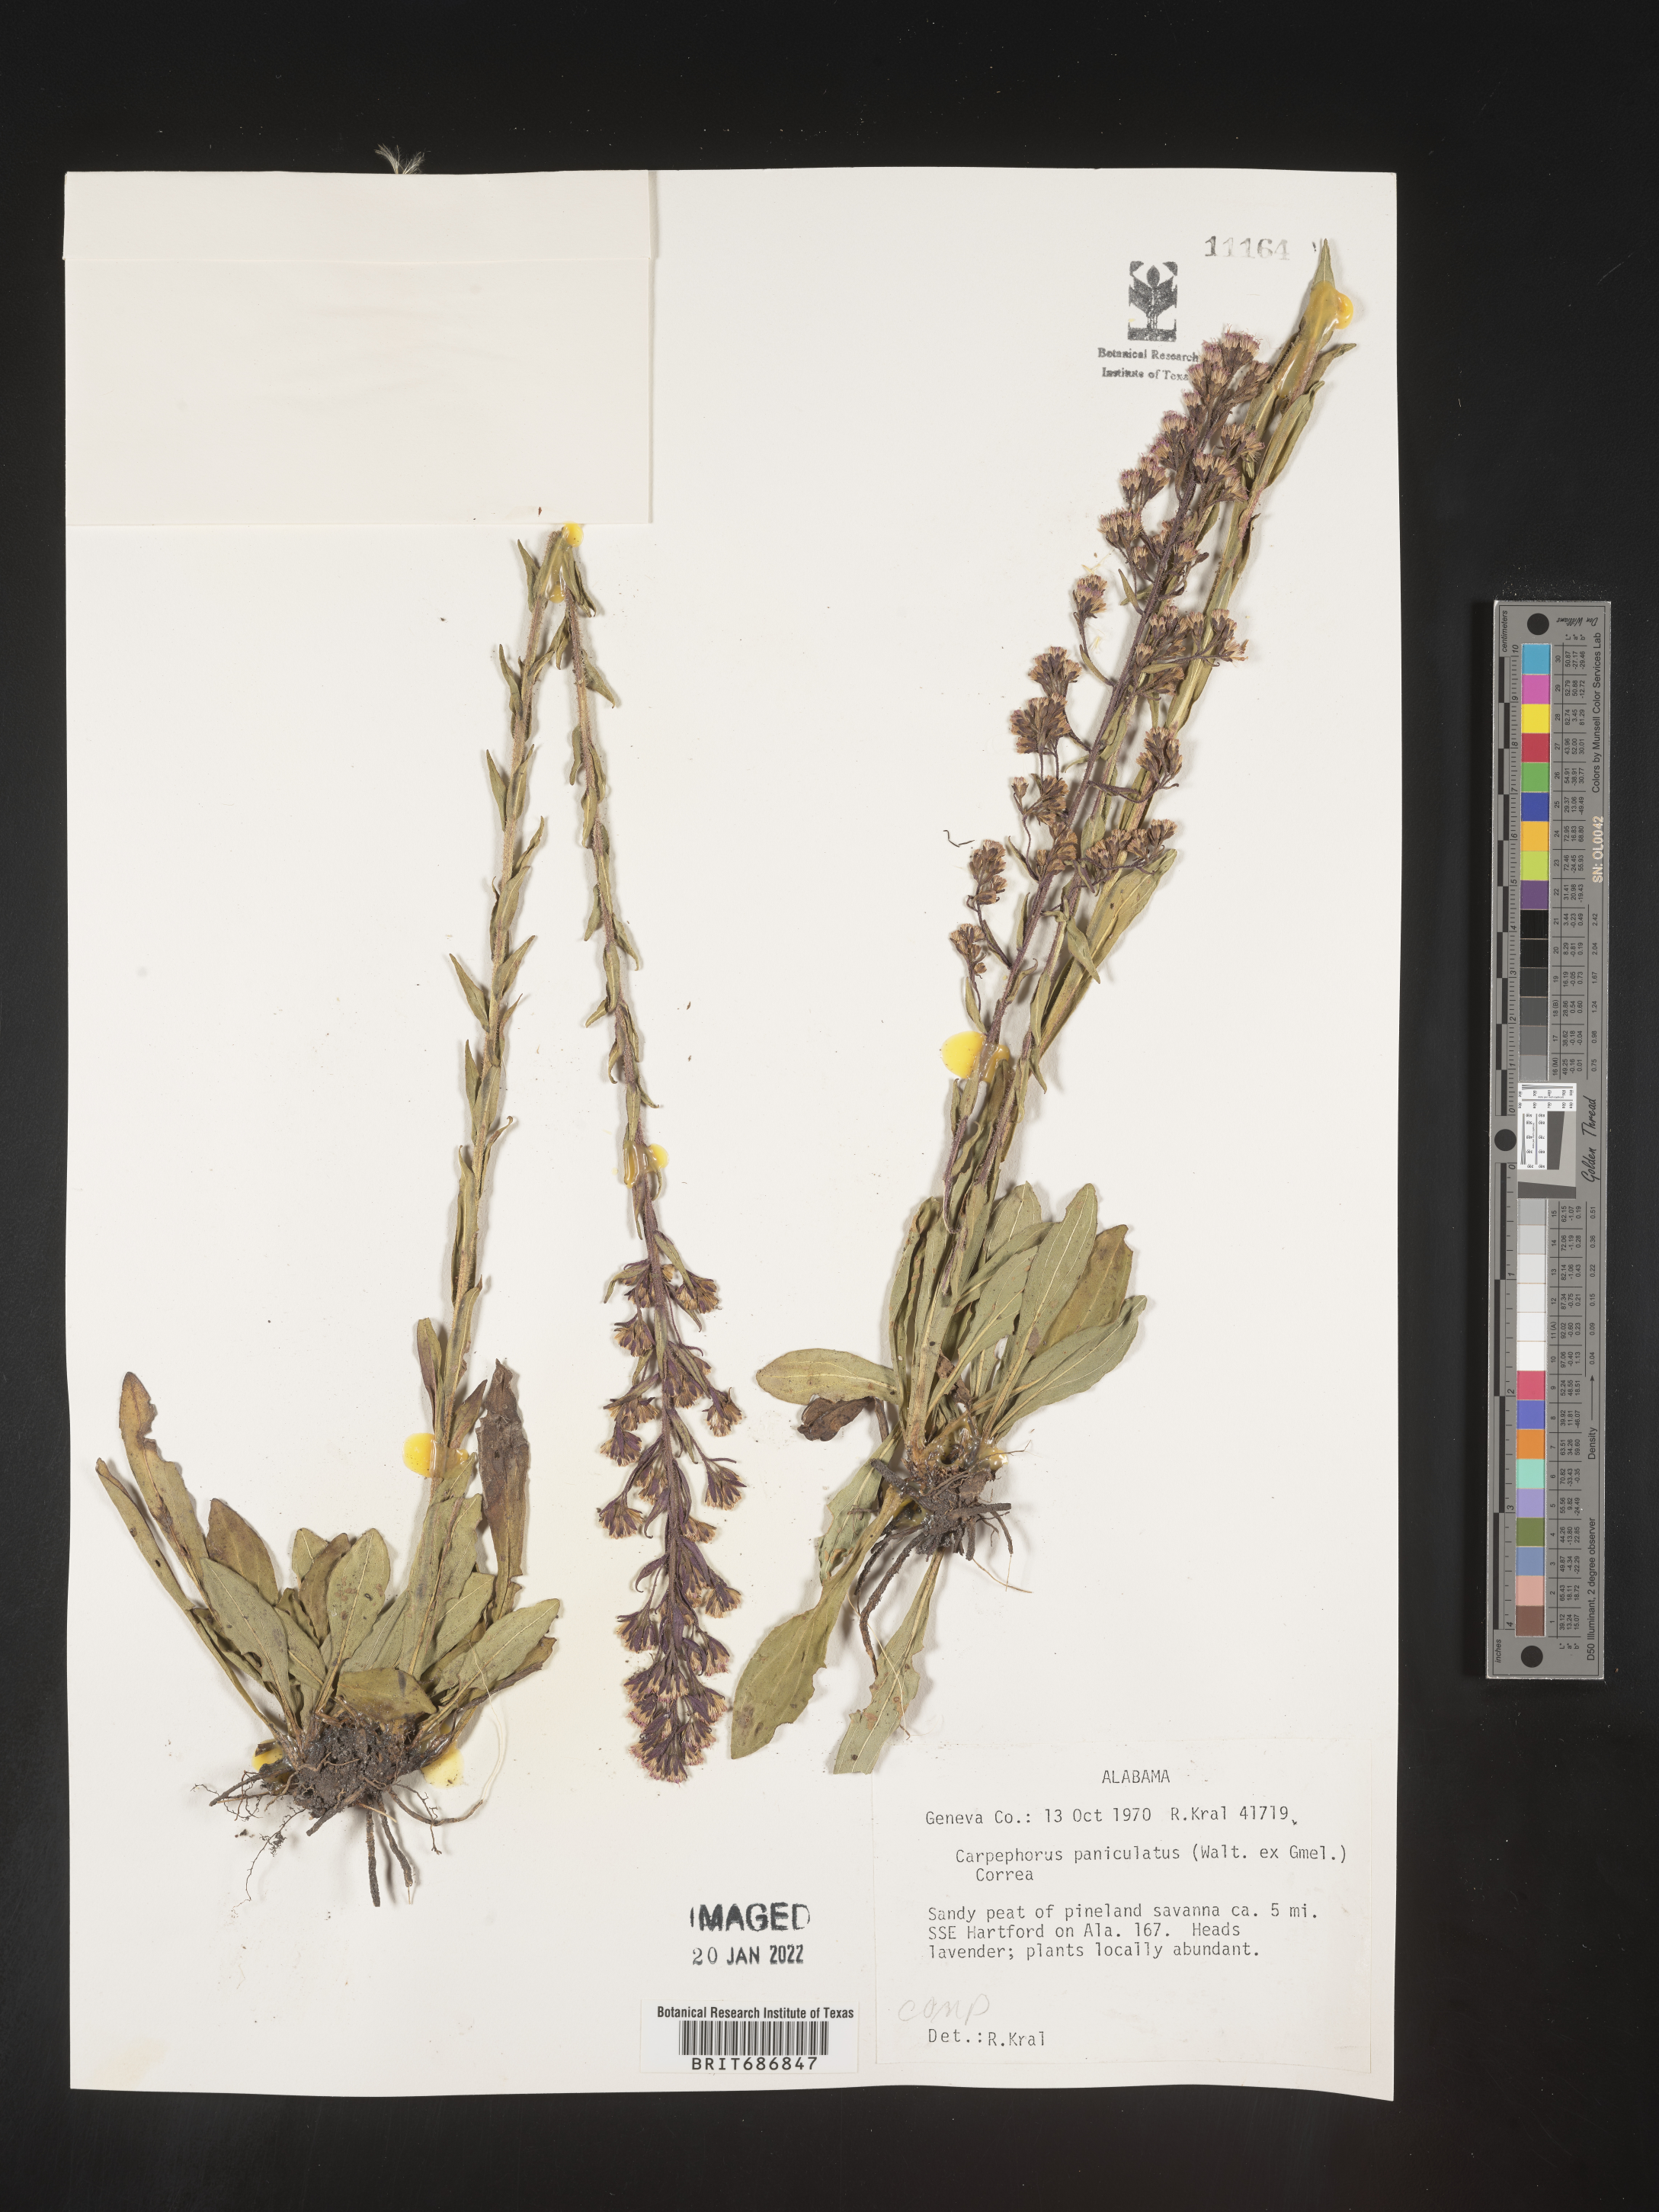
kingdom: Plantae
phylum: Tracheophyta
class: Magnoliopsida
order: Asterales
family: Asteraceae
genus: Carphephorus
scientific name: Carphephorus paniculatus
